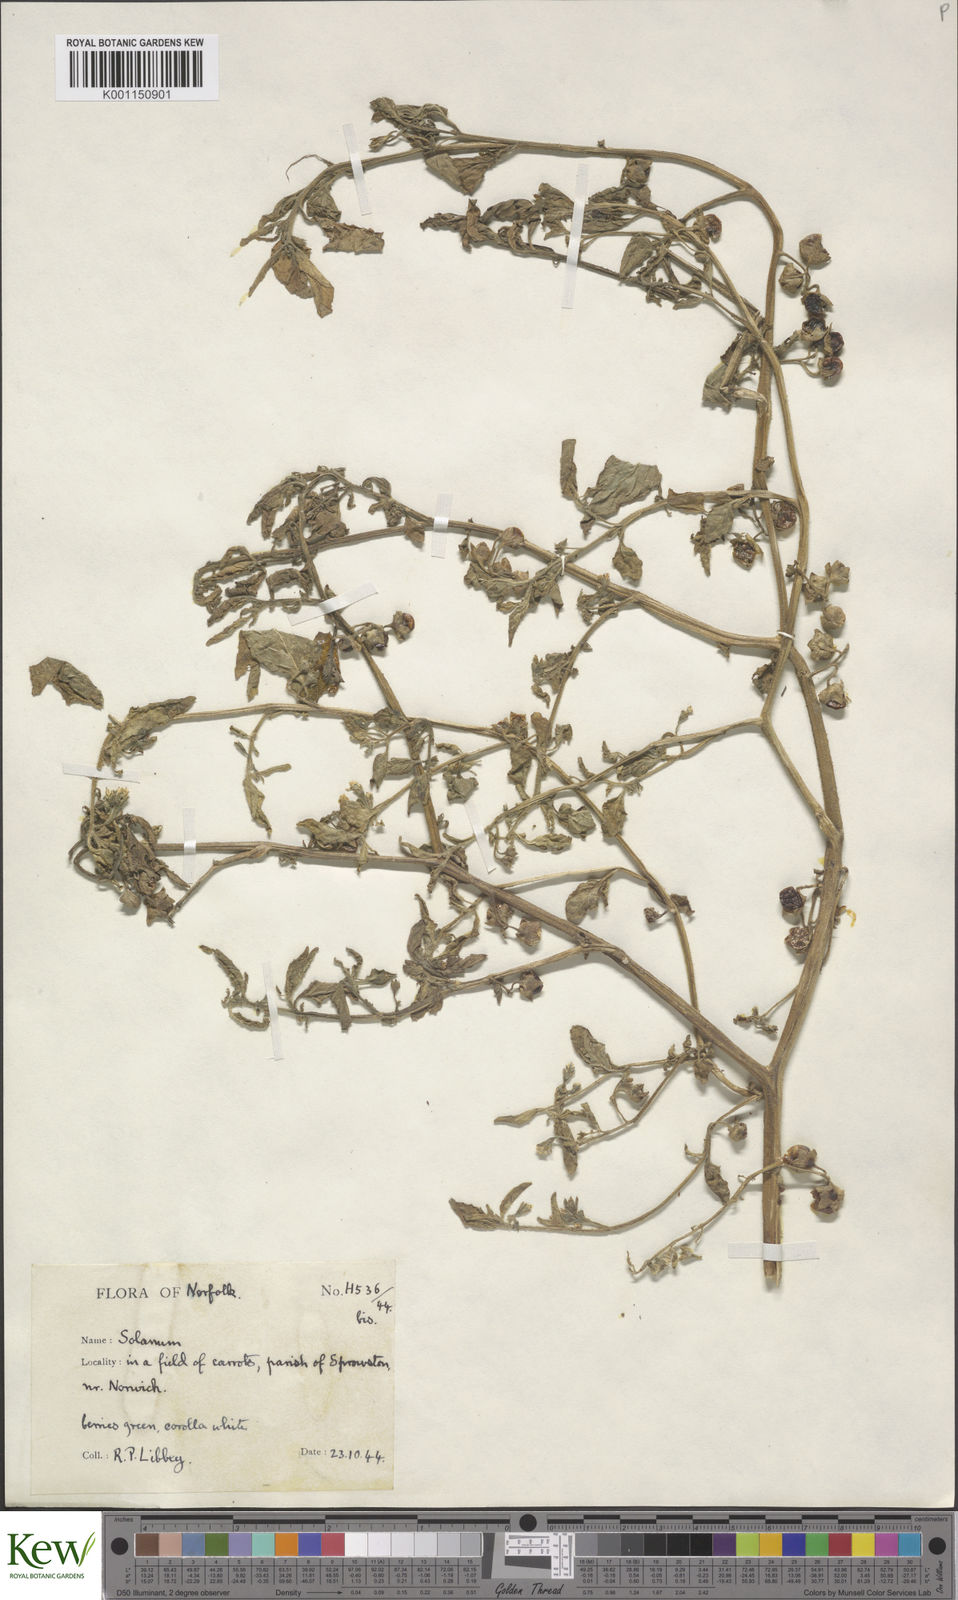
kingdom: Plantae
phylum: Tracheophyta
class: Magnoliopsida
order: Solanales
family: Solanaceae
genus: Solanum
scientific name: Solanum nitidibaccatum
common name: Hairy nightshade
